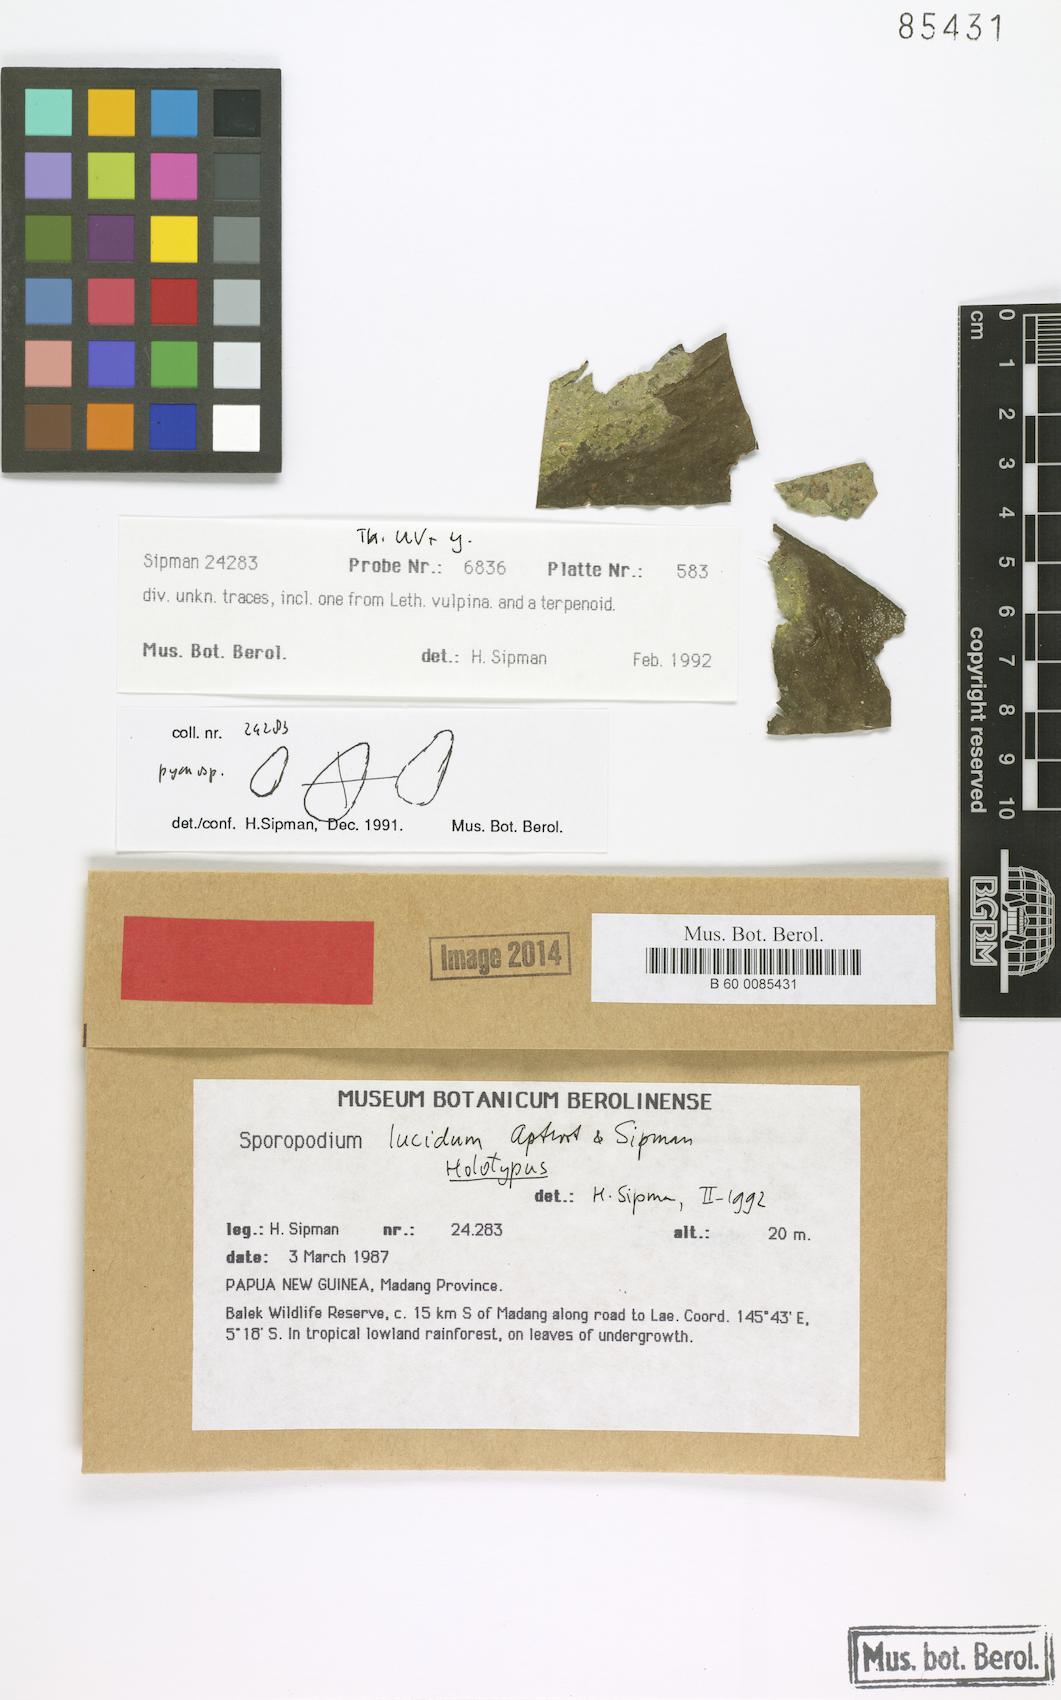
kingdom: Fungi
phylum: Ascomycota
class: Lecanoromycetes
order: Lecanorales
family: Ectolechiaceae
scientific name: Ectolechiaceae
